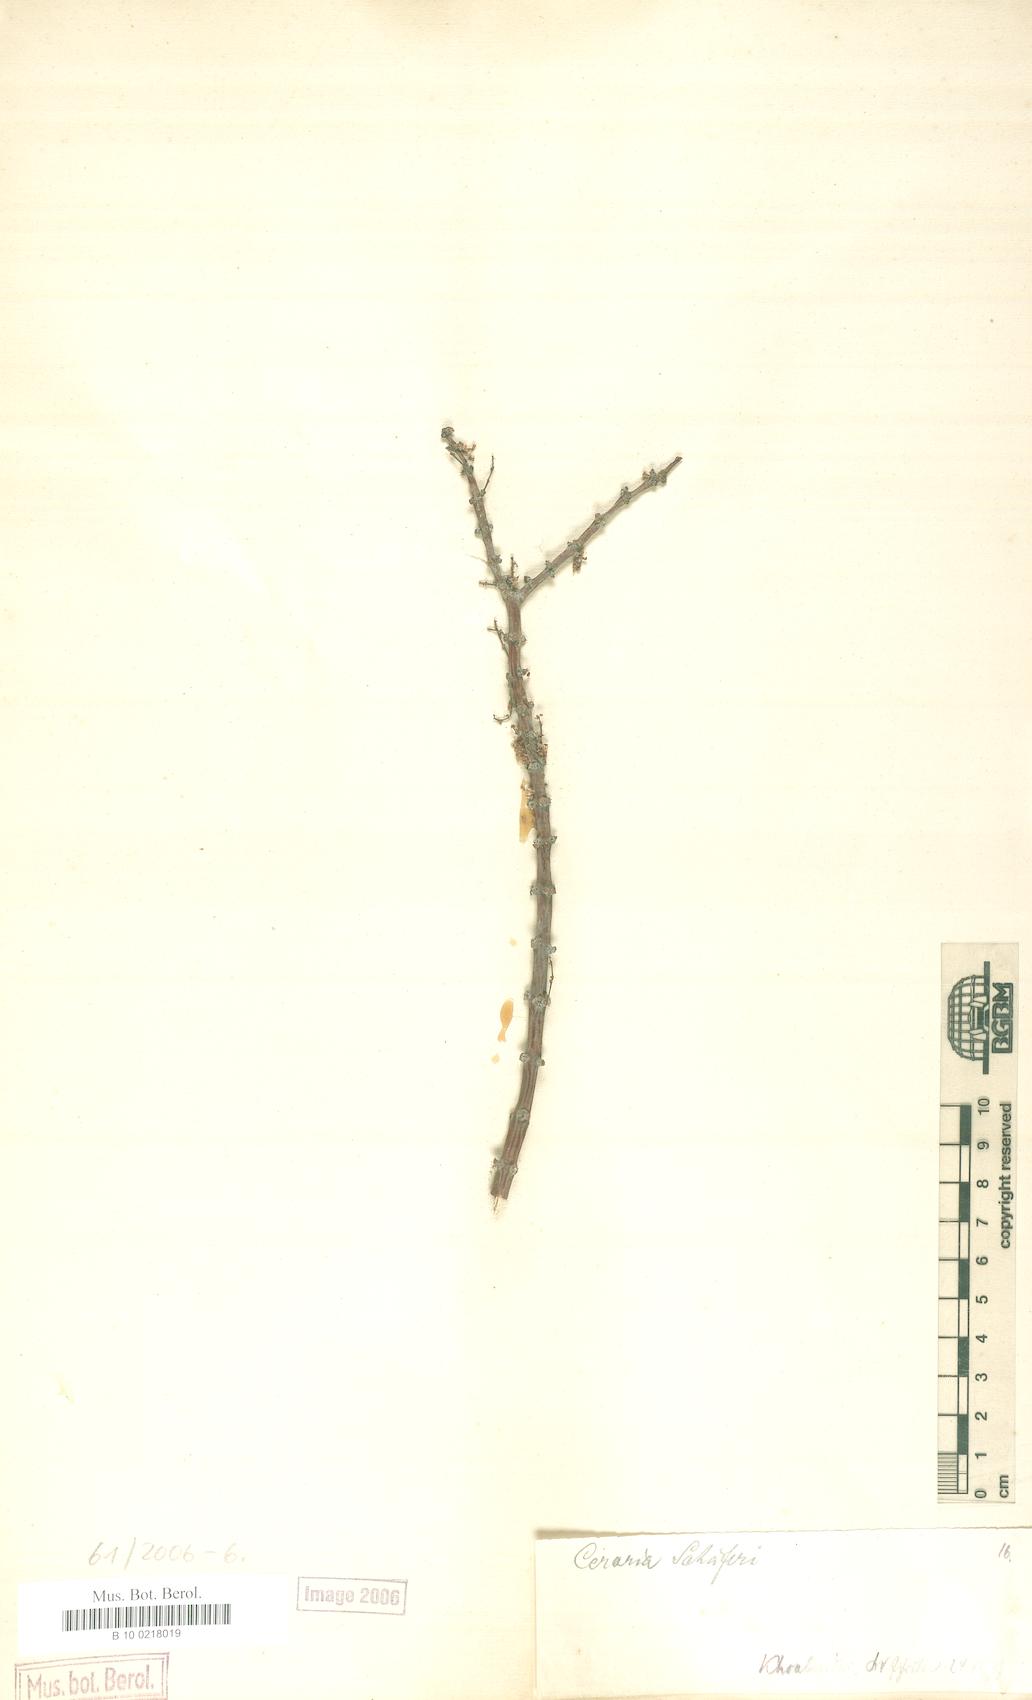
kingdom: Plantae
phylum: Tracheophyta
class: Magnoliopsida
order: Caryophyllales
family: Didiereaceae
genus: Portulacaria
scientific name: Portulacaria fruticulosa
